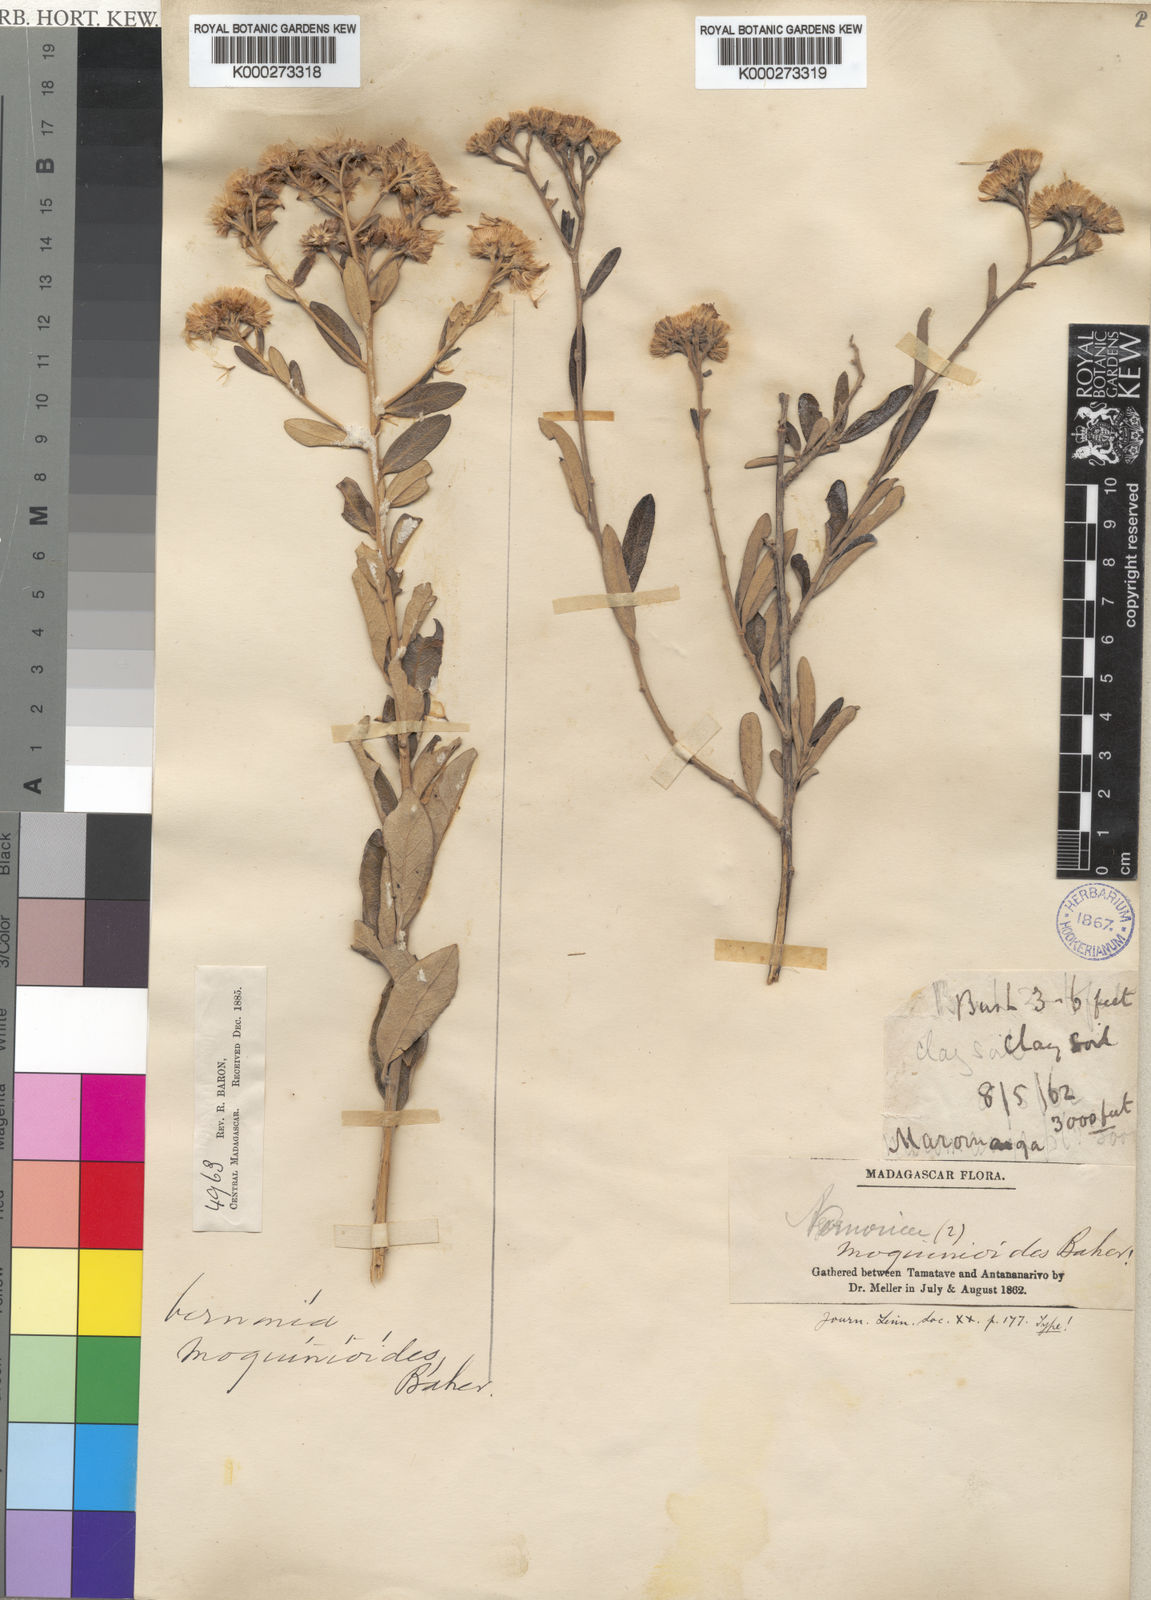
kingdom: Plantae
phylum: Tracheophyta
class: Magnoliopsida
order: Asterales
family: Asteraceae
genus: Distephanus
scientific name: Distephanus garnierianus
